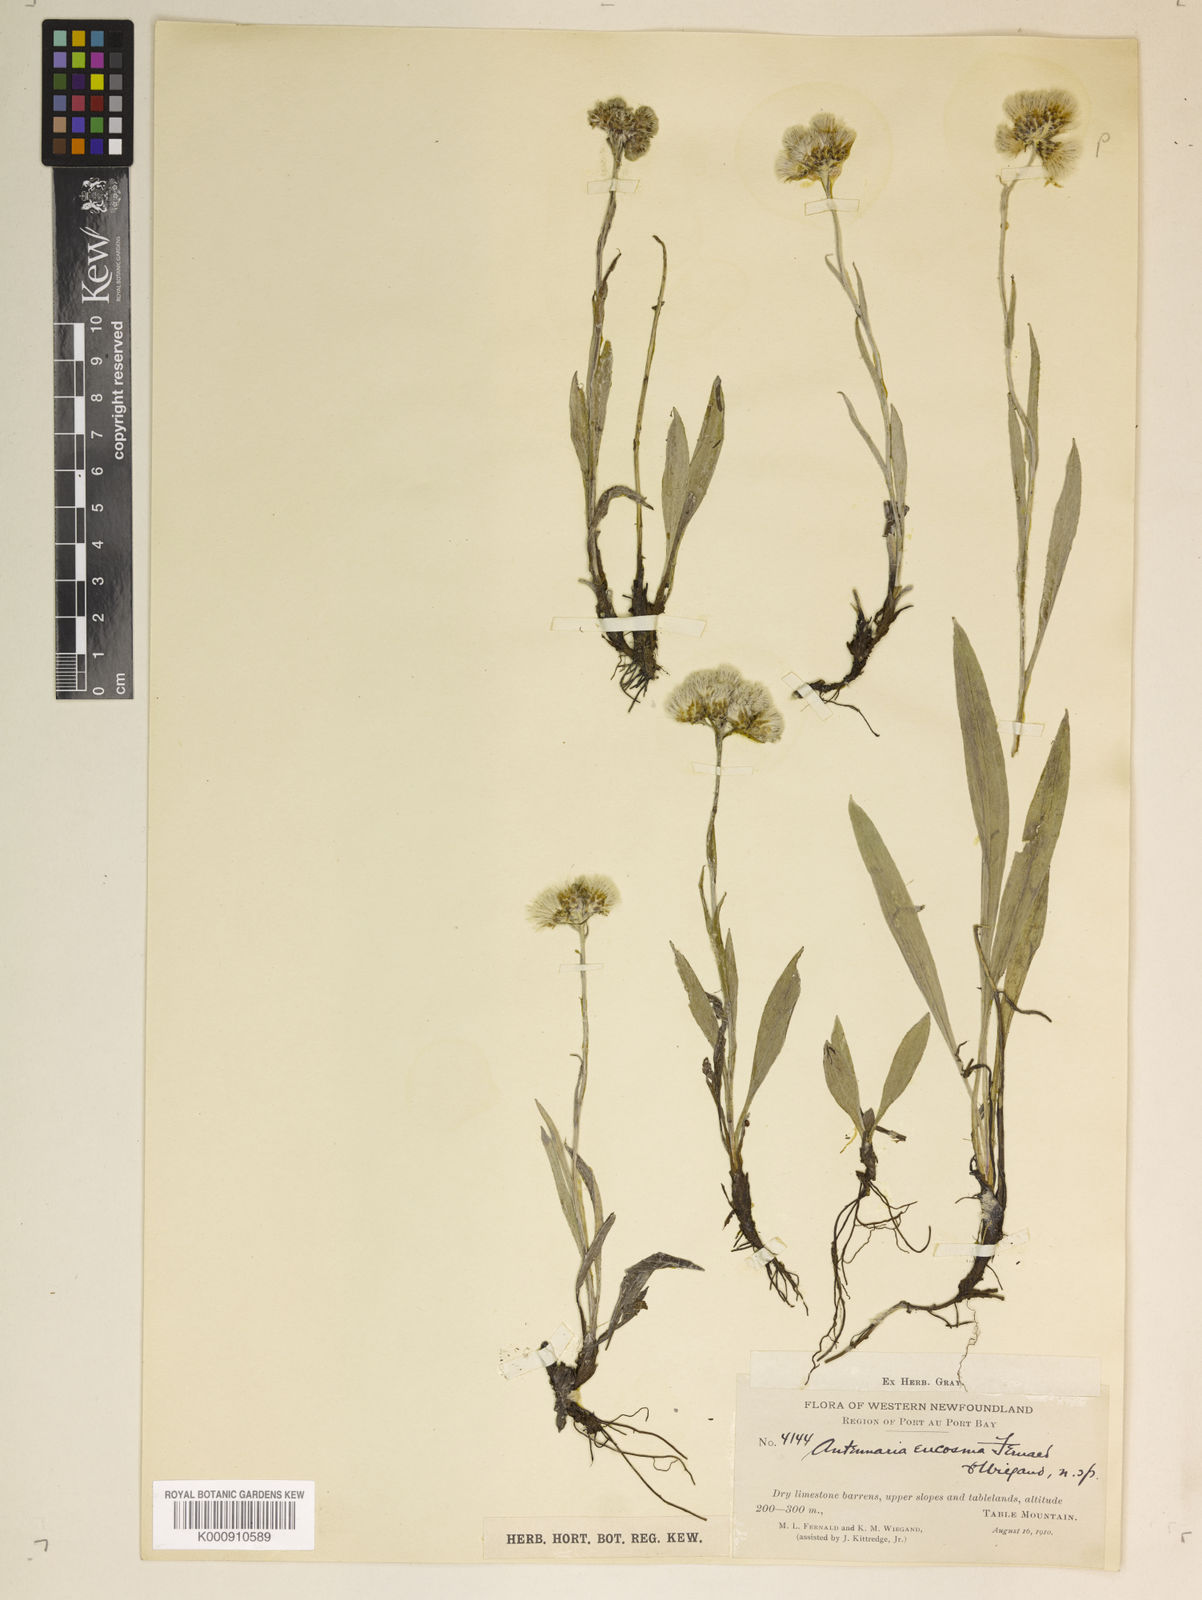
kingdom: Plantae
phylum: Tracheophyta
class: Magnoliopsida
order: Asterales
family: Asteraceae
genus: Antennaria
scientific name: Antennaria pulcherrima
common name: Handsome pussytoes
